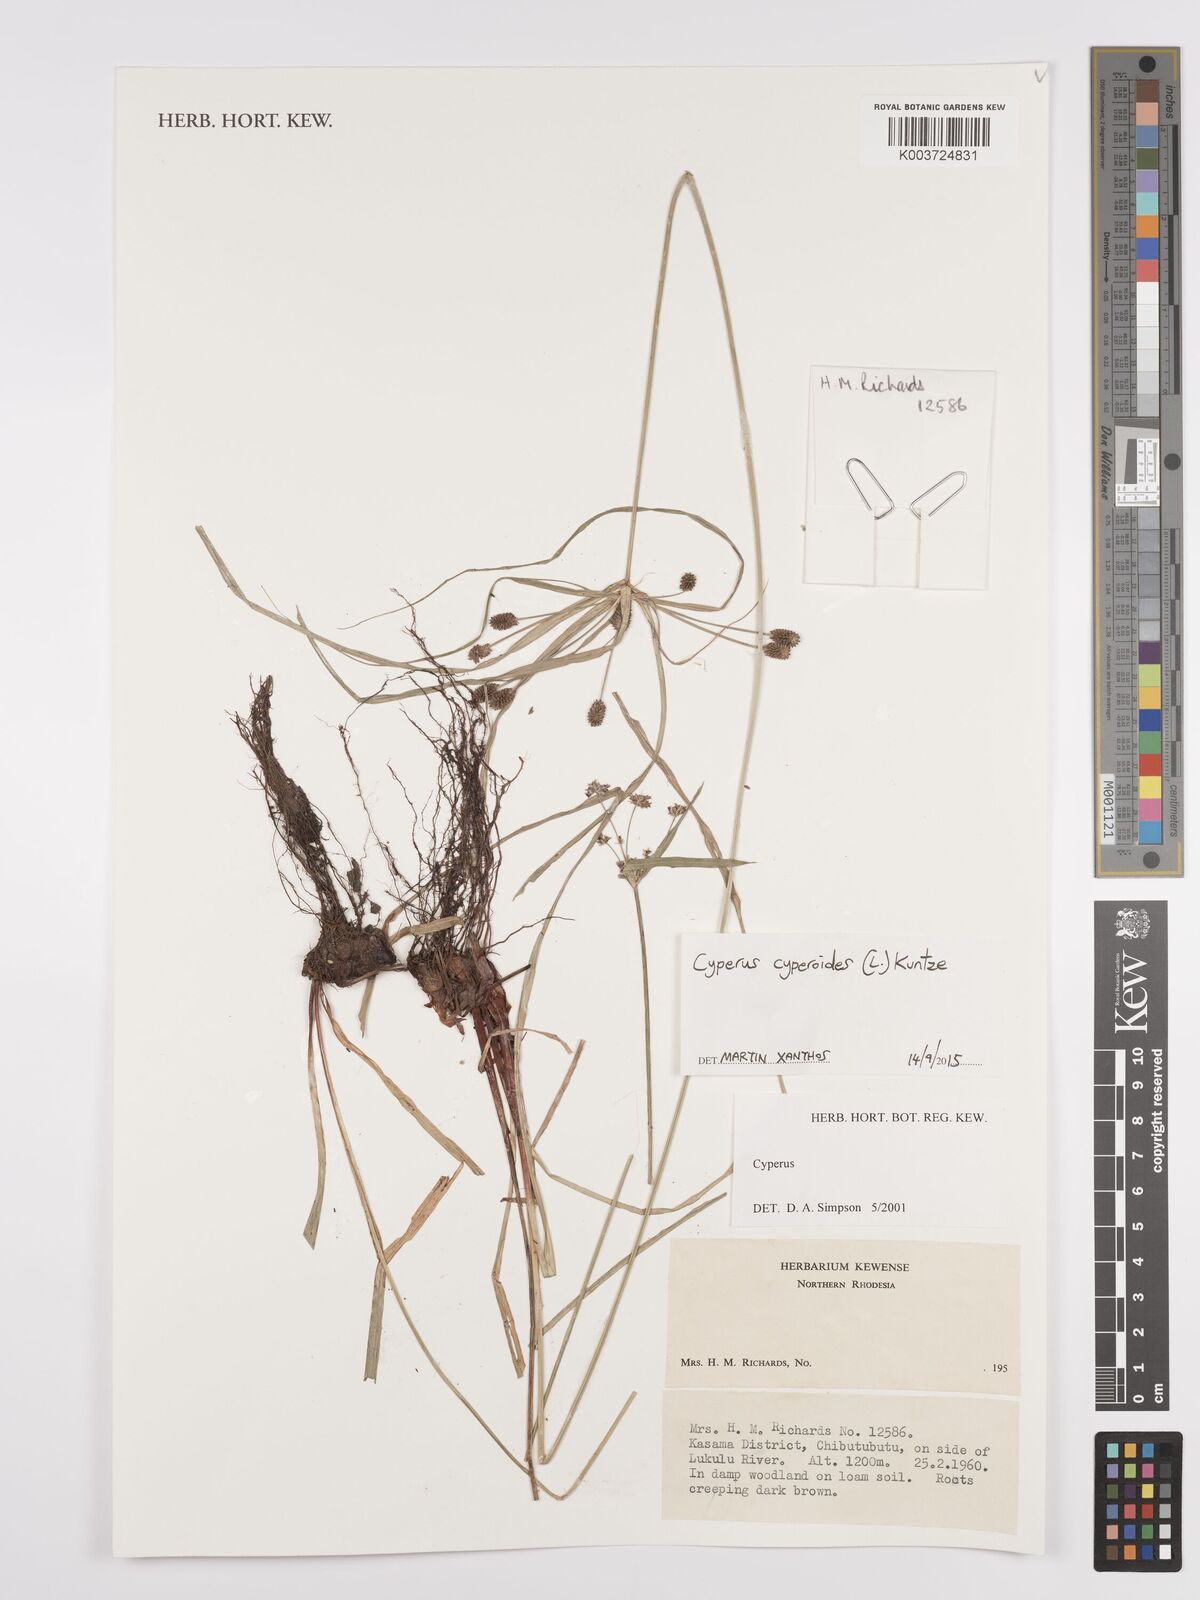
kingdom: Plantae
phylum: Tracheophyta
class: Liliopsida
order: Poales
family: Cyperaceae
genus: Cyperus
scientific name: Cyperus cyperoides
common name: Pacific island flat sedge
